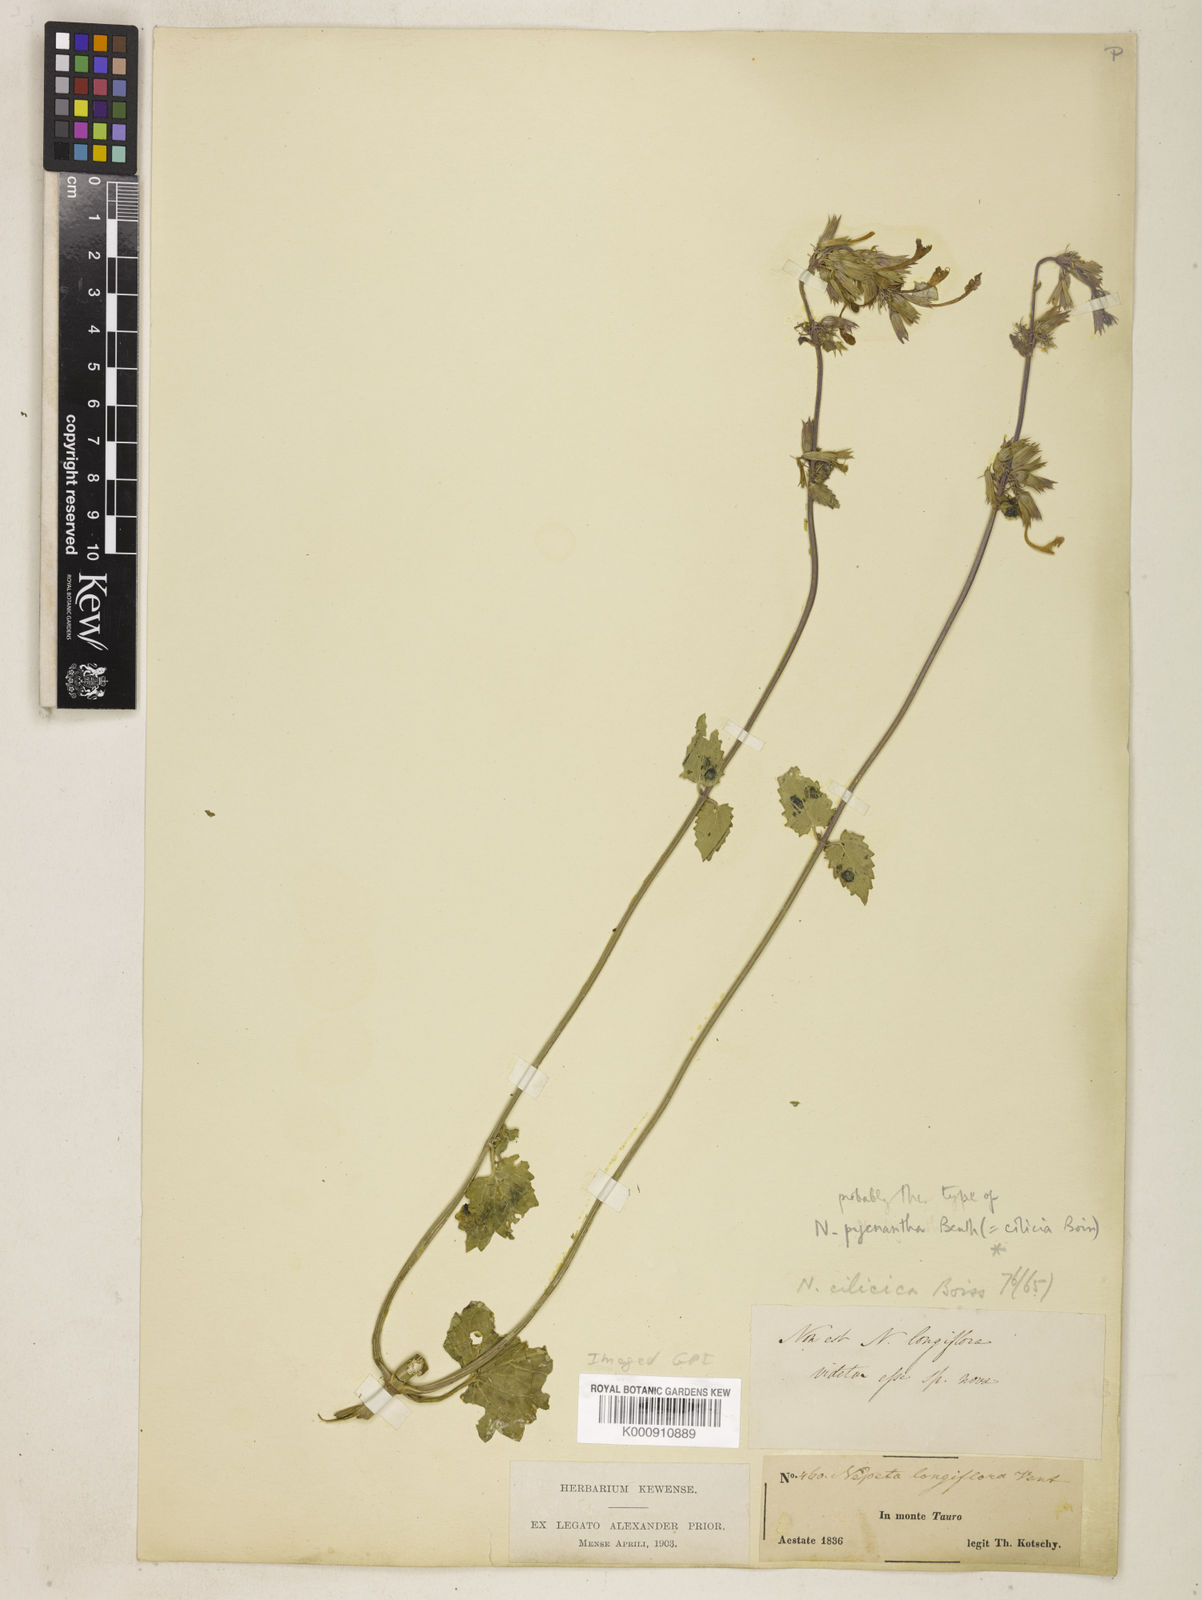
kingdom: Plantae
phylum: Tracheophyta
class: Magnoliopsida
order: Lamiales
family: Lamiaceae
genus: Nepeta
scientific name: Nepeta
